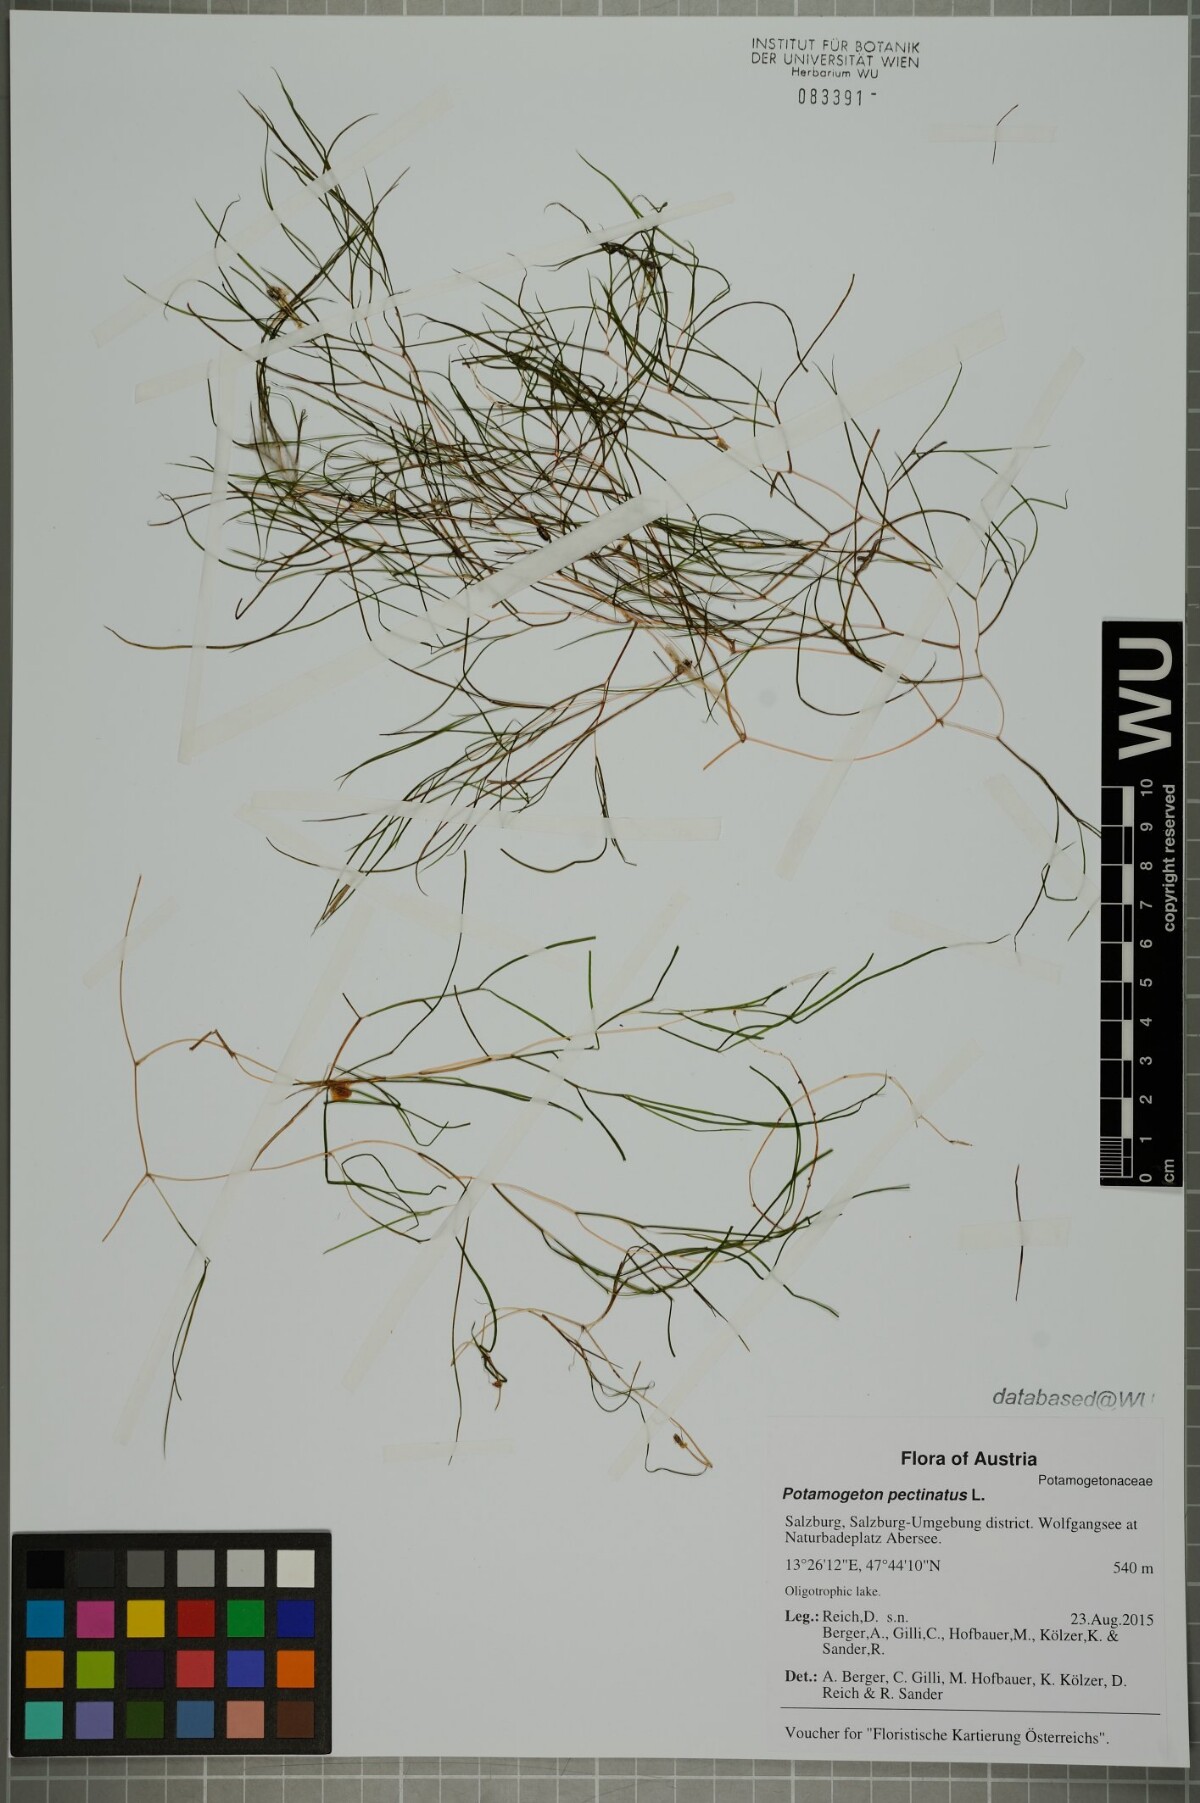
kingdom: Plantae
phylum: Tracheophyta
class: Liliopsida
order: Alismatales
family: Potamogetonaceae
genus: Stuckenia
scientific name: Stuckenia pectinata
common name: Sago pondweed
